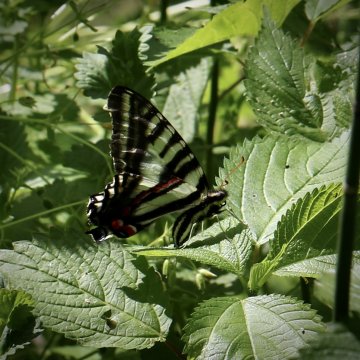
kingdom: Animalia
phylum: Arthropoda
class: Insecta
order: Lepidoptera
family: Papilionidae
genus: Protographium
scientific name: Protographium marcellus
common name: Zebra Swallowtail
